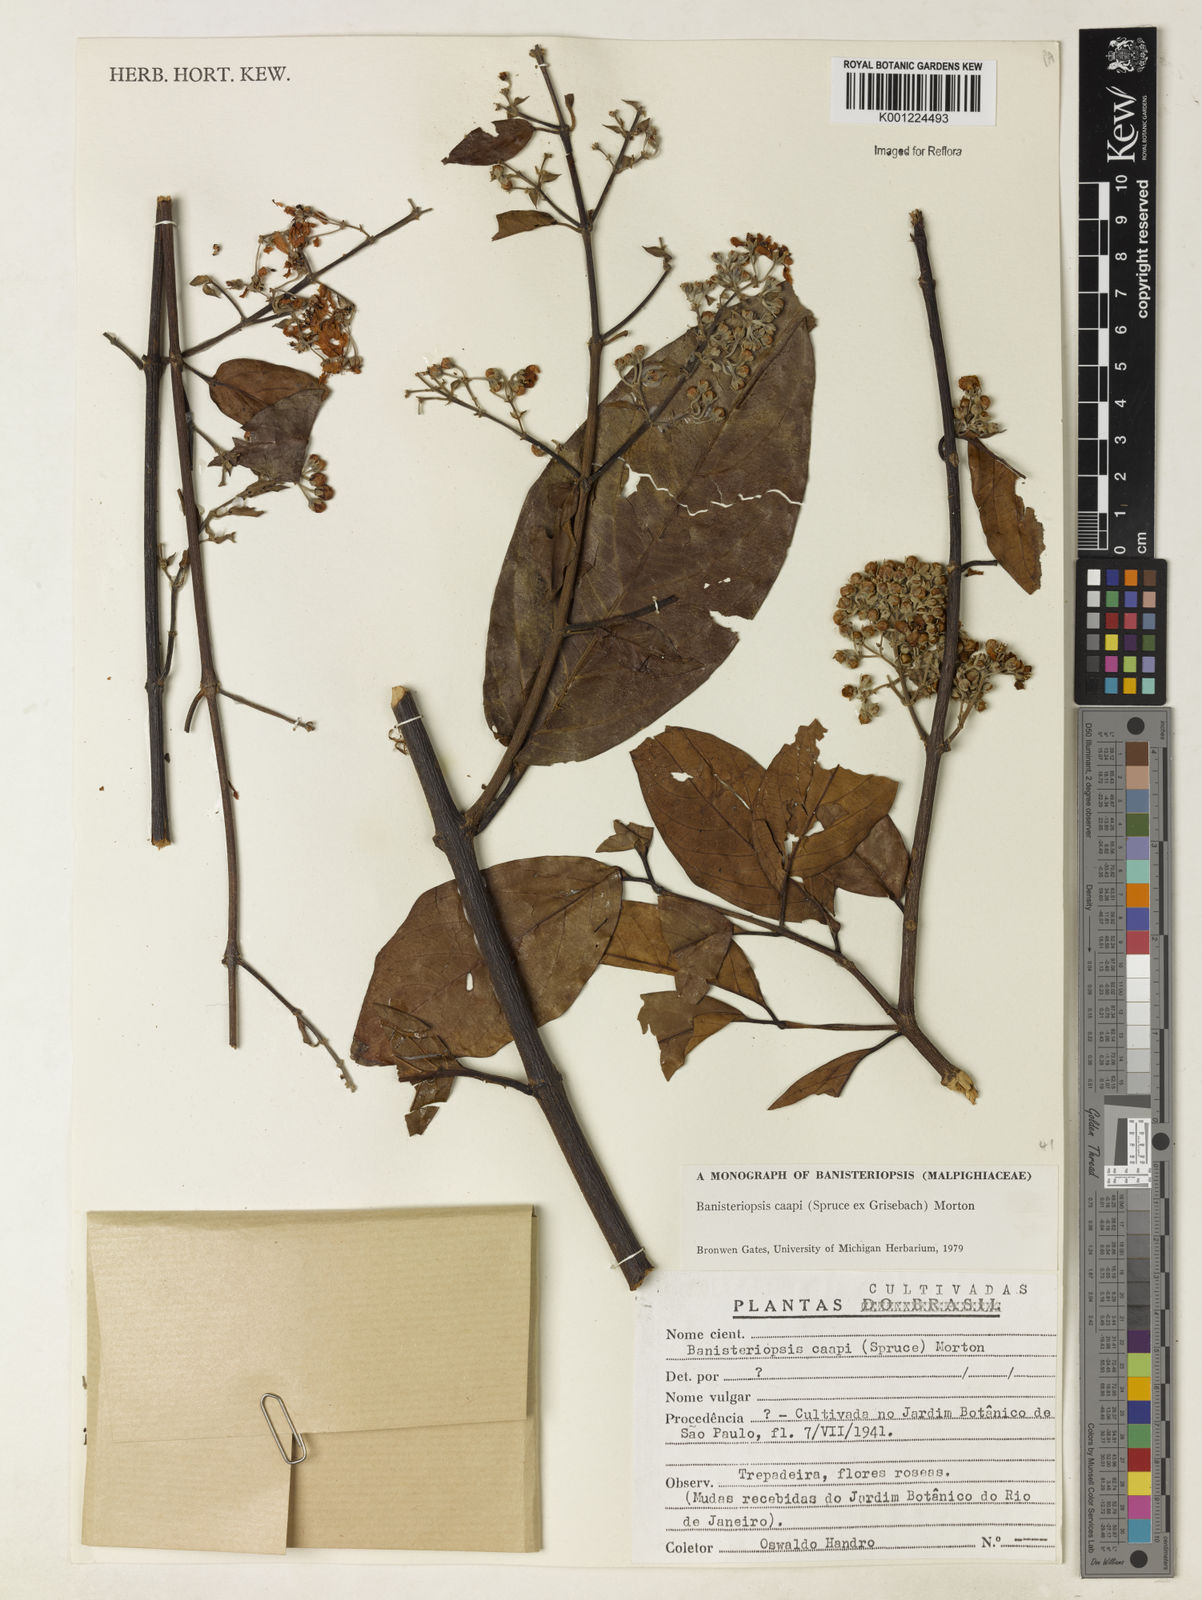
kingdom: Plantae
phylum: Tracheophyta
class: Magnoliopsida
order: Malpighiales
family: Malpighiaceae
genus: Banisteriopsis
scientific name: Banisteriopsis caapi
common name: Soulvine
